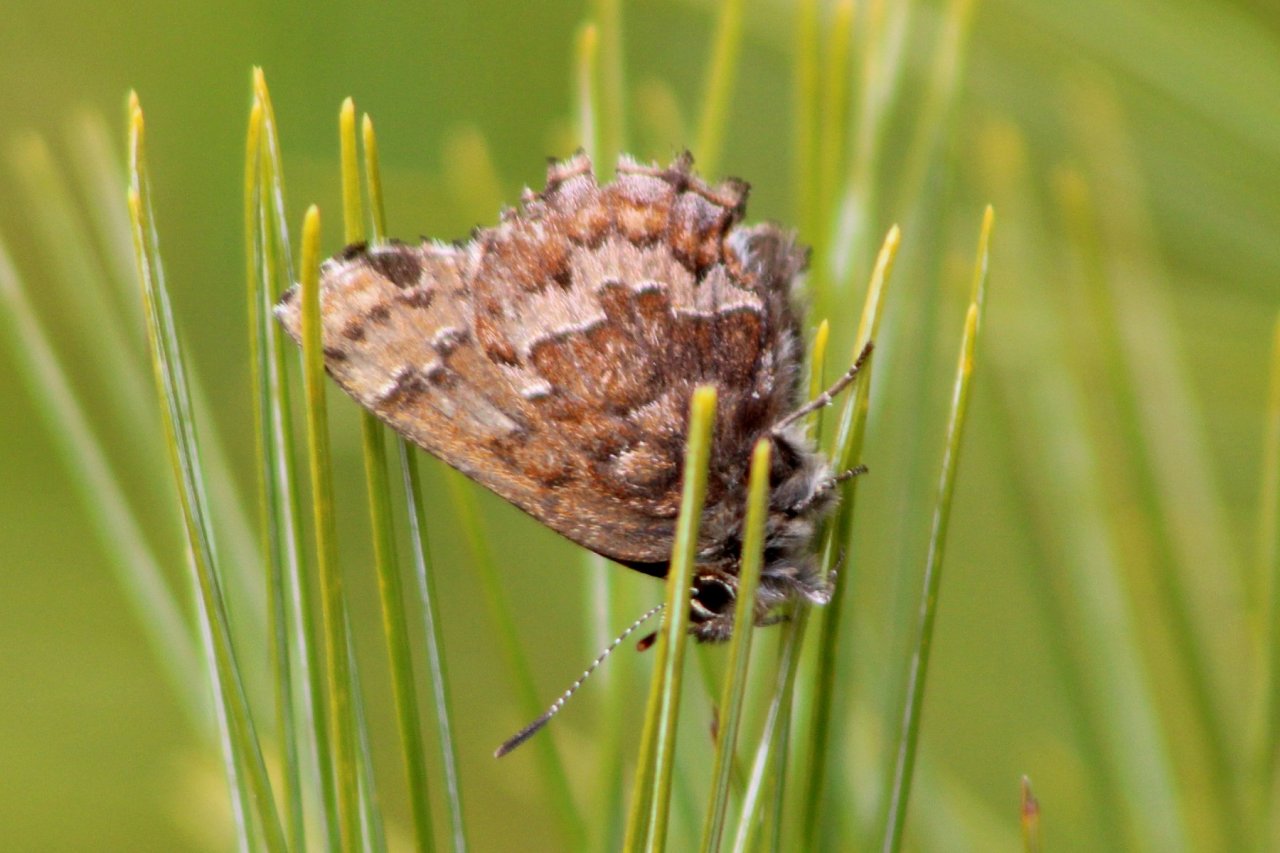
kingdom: Animalia
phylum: Arthropoda
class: Insecta
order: Lepidoptera
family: Lycaenidae
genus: Incisalia
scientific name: Incisalia niphon
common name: Eastern Pine Elfin
